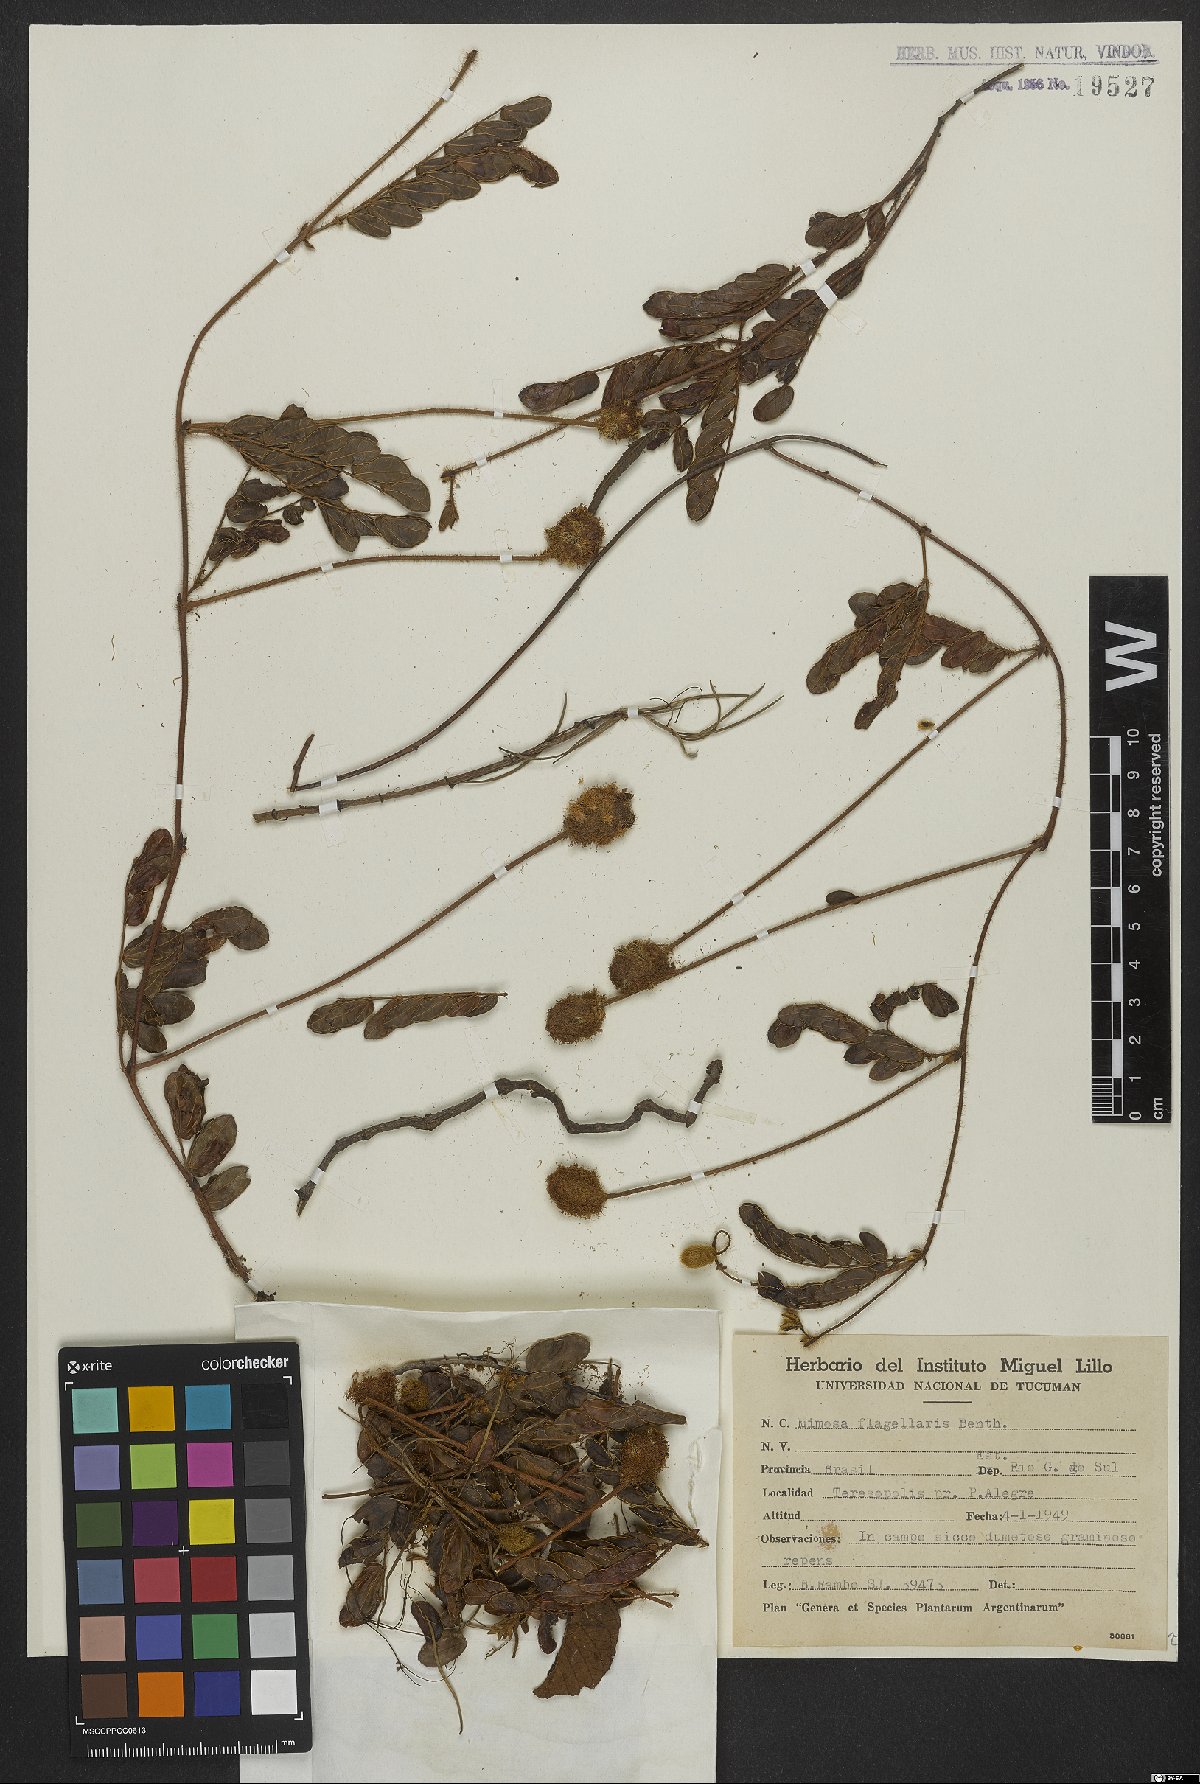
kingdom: Plantae
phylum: Tracheophyta
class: Magnoliopsida
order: Fabales
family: Fabaceae
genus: Mimosa
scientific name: Mimosa flagellaris
